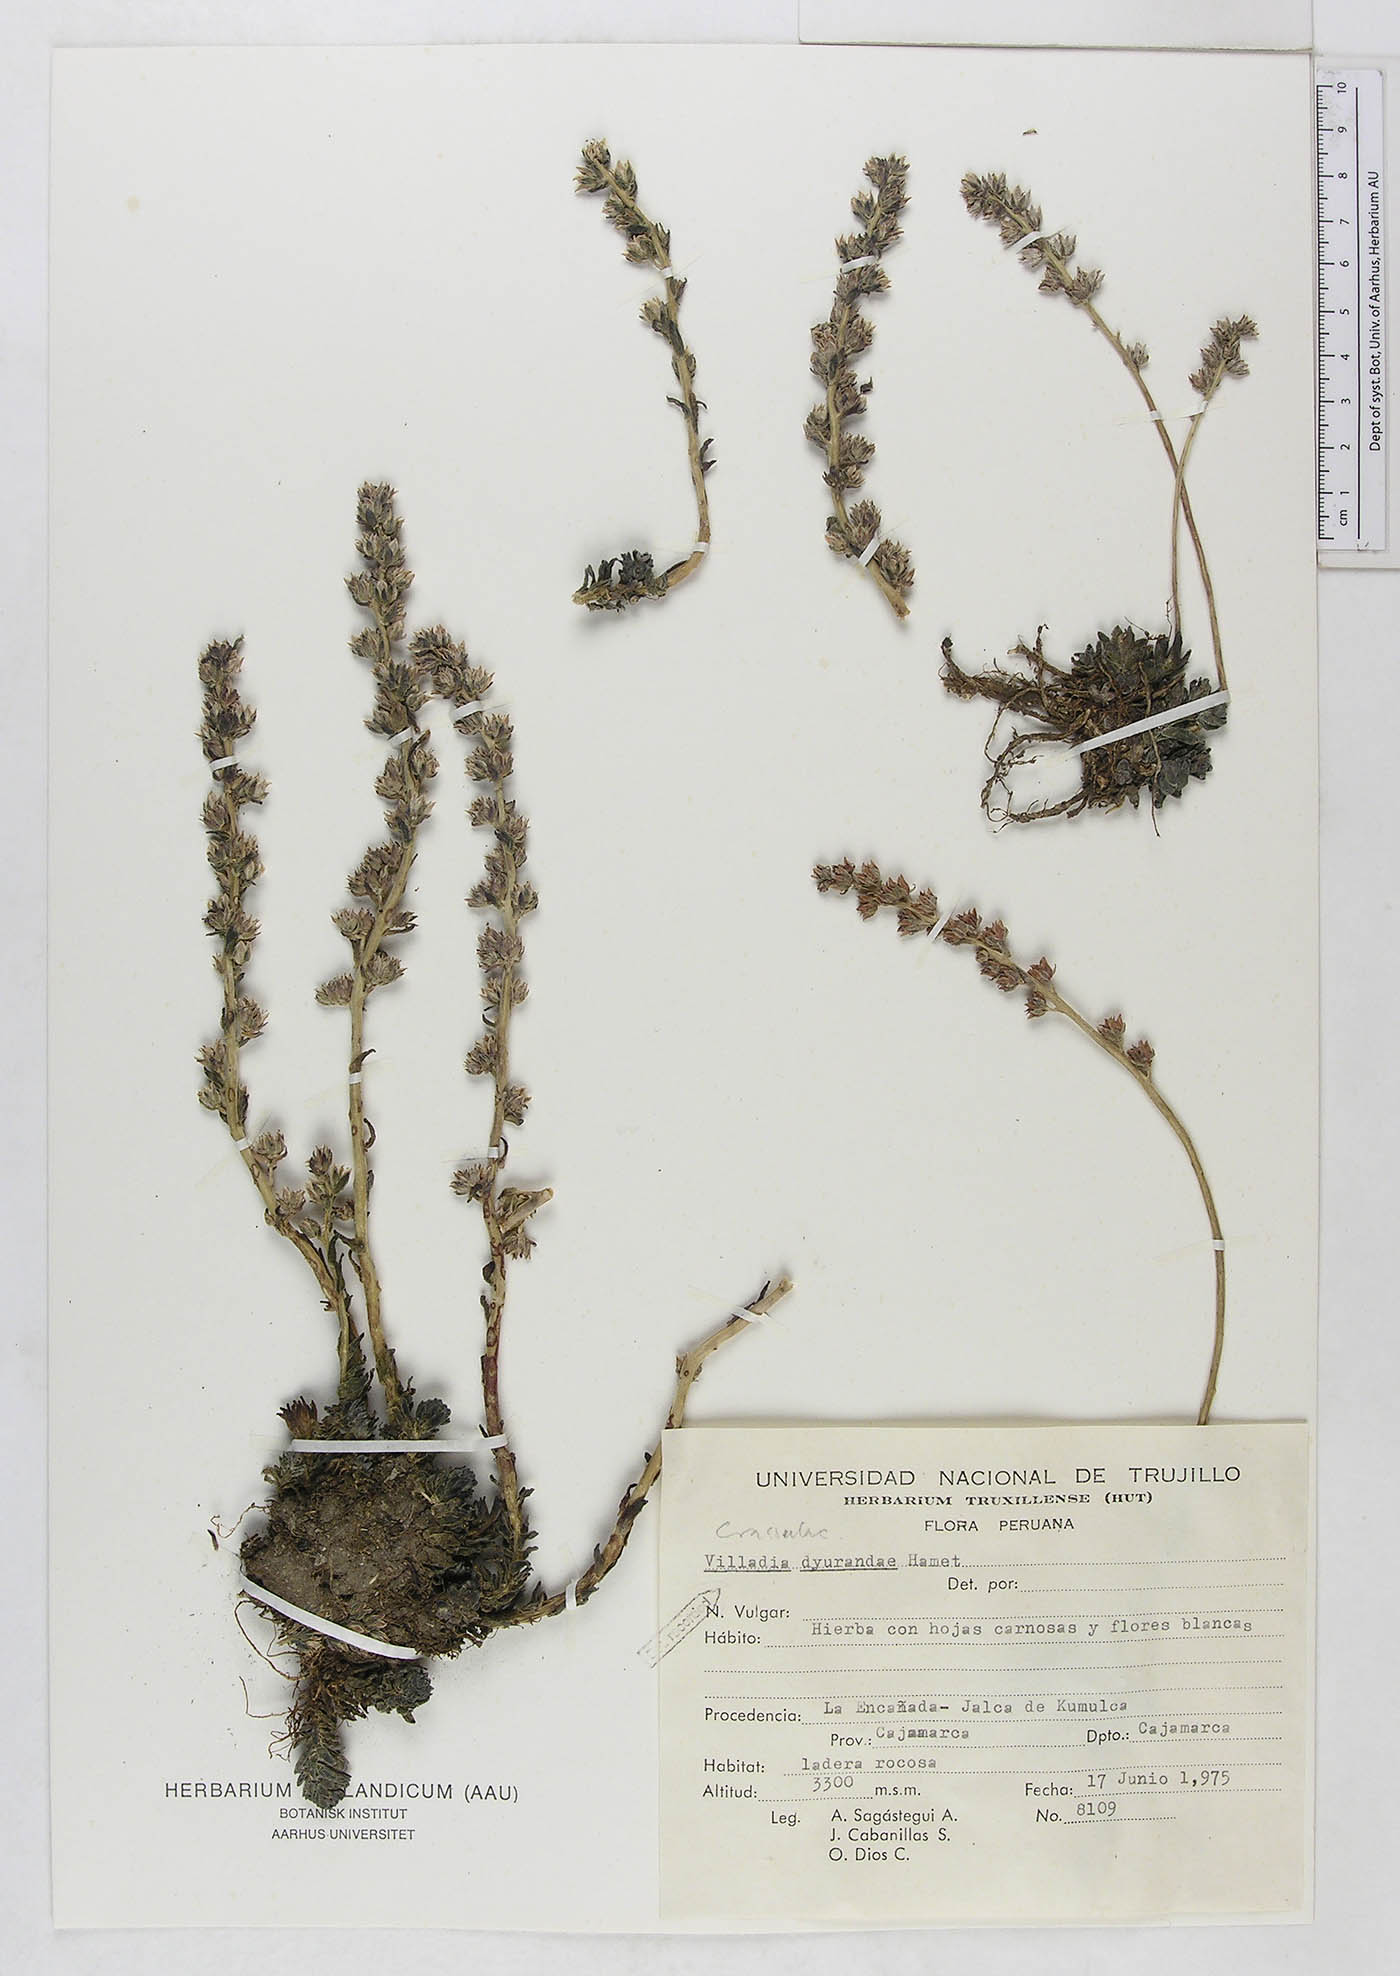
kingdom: Plantae
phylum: Tracheophyta
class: Magnoliopsida
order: Saxifragales
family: Crassulaceae
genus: Villadia
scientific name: Villadia dyvrandae
